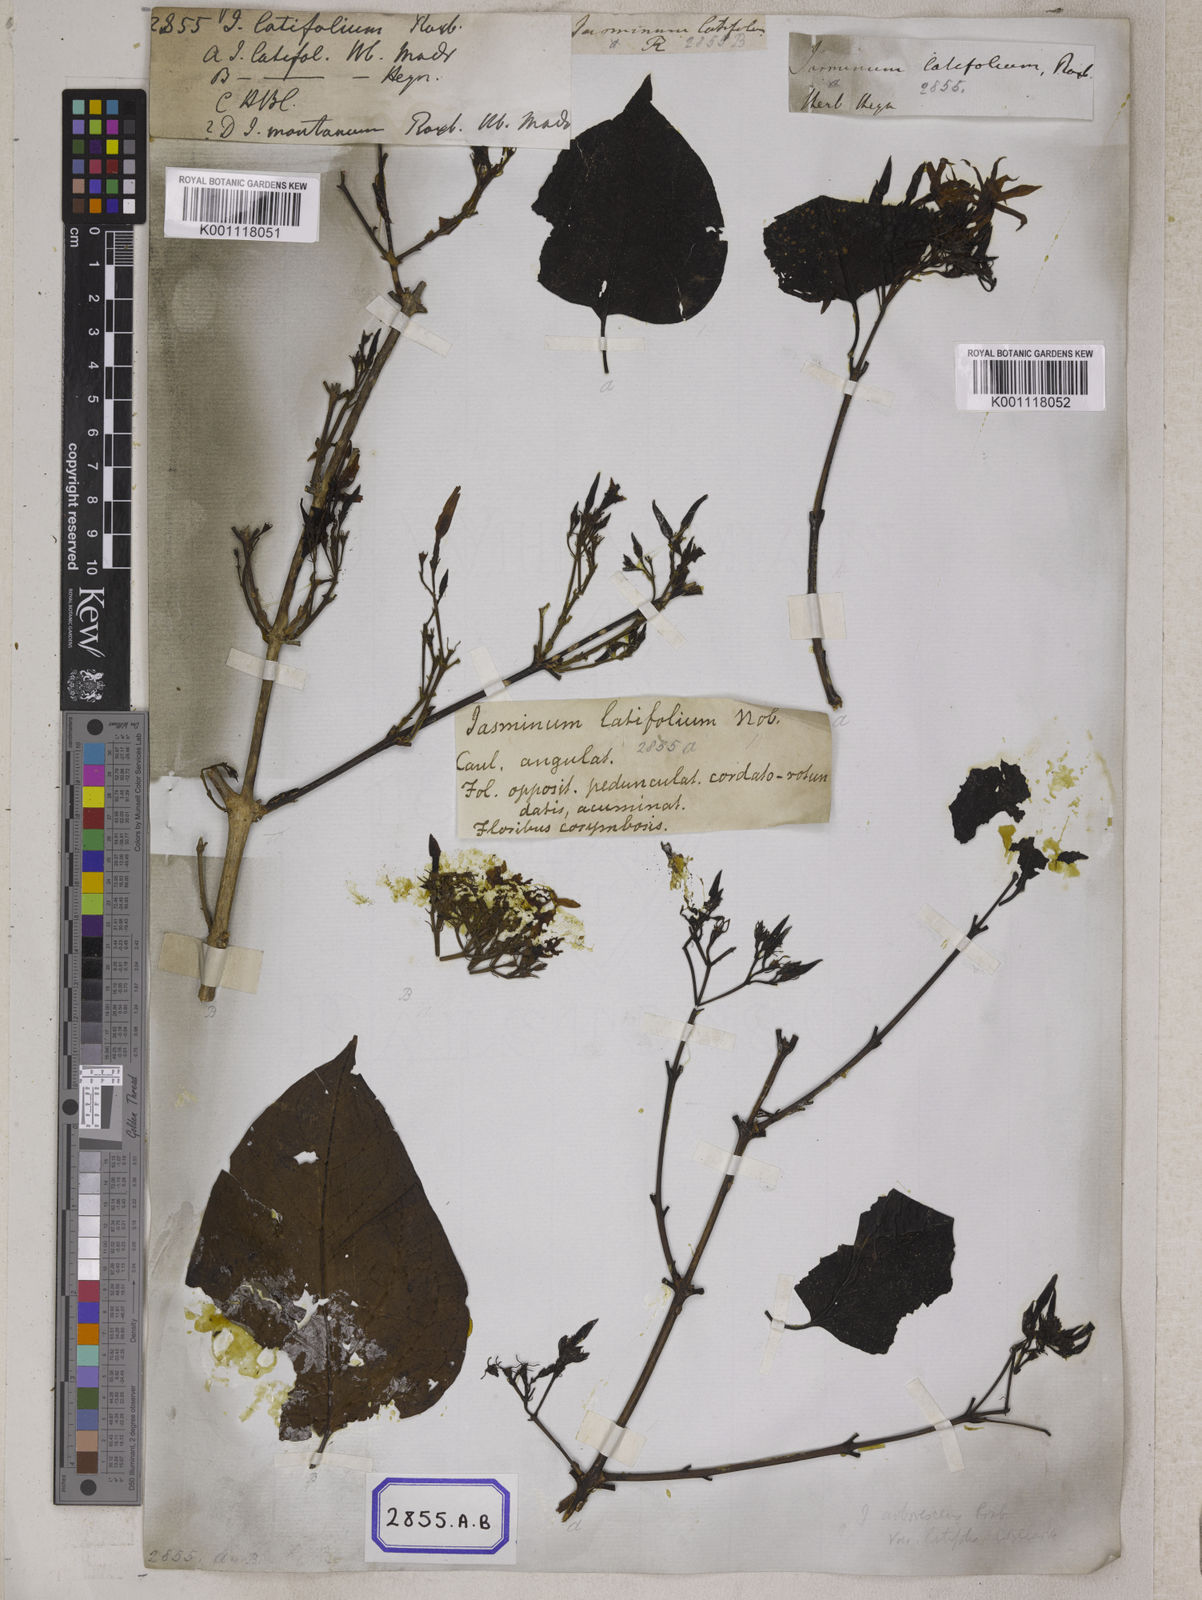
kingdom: Plantae
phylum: Tracheophyta
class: Magnoliopsida
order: Lamiales
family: Oleaceae
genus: Jasminum
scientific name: Jasminum arborescens
